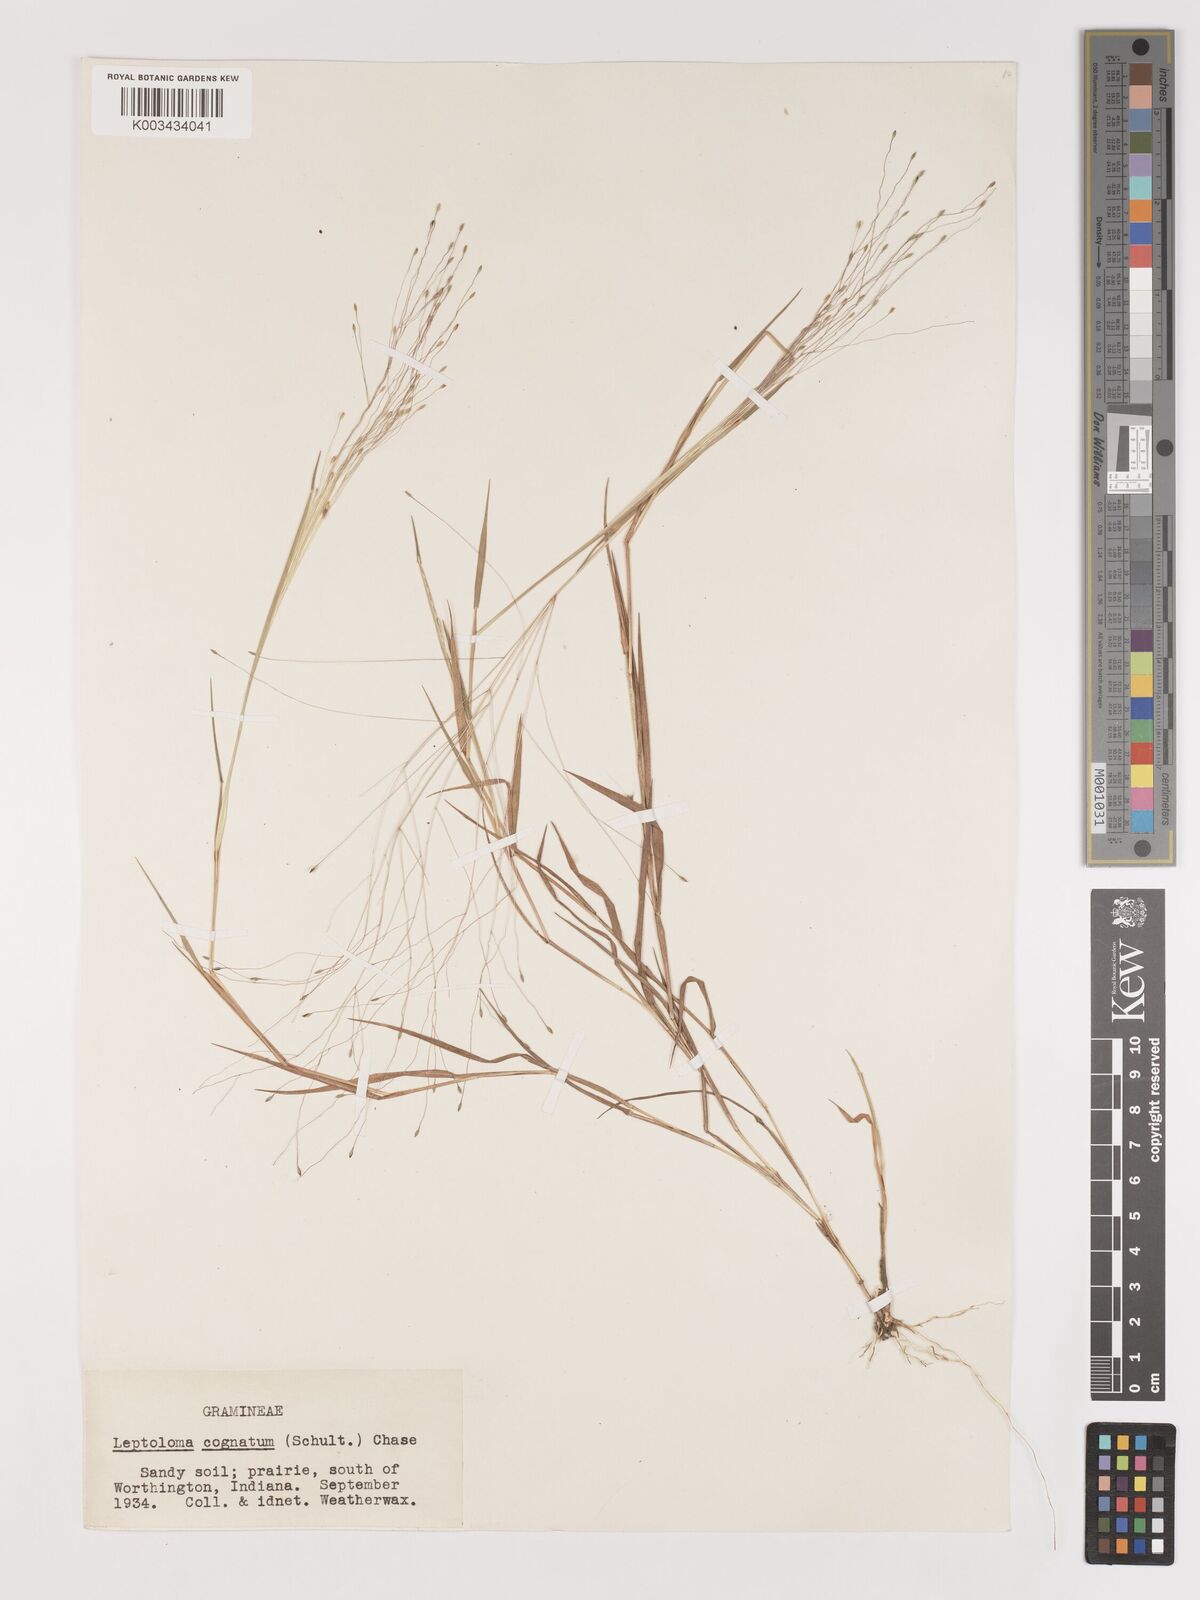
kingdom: Plantae
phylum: Tracheophyta
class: Liliopsida
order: Poales
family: Poaceae
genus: Digitaria
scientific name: Digitaria cognata
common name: Fall witchgrass
